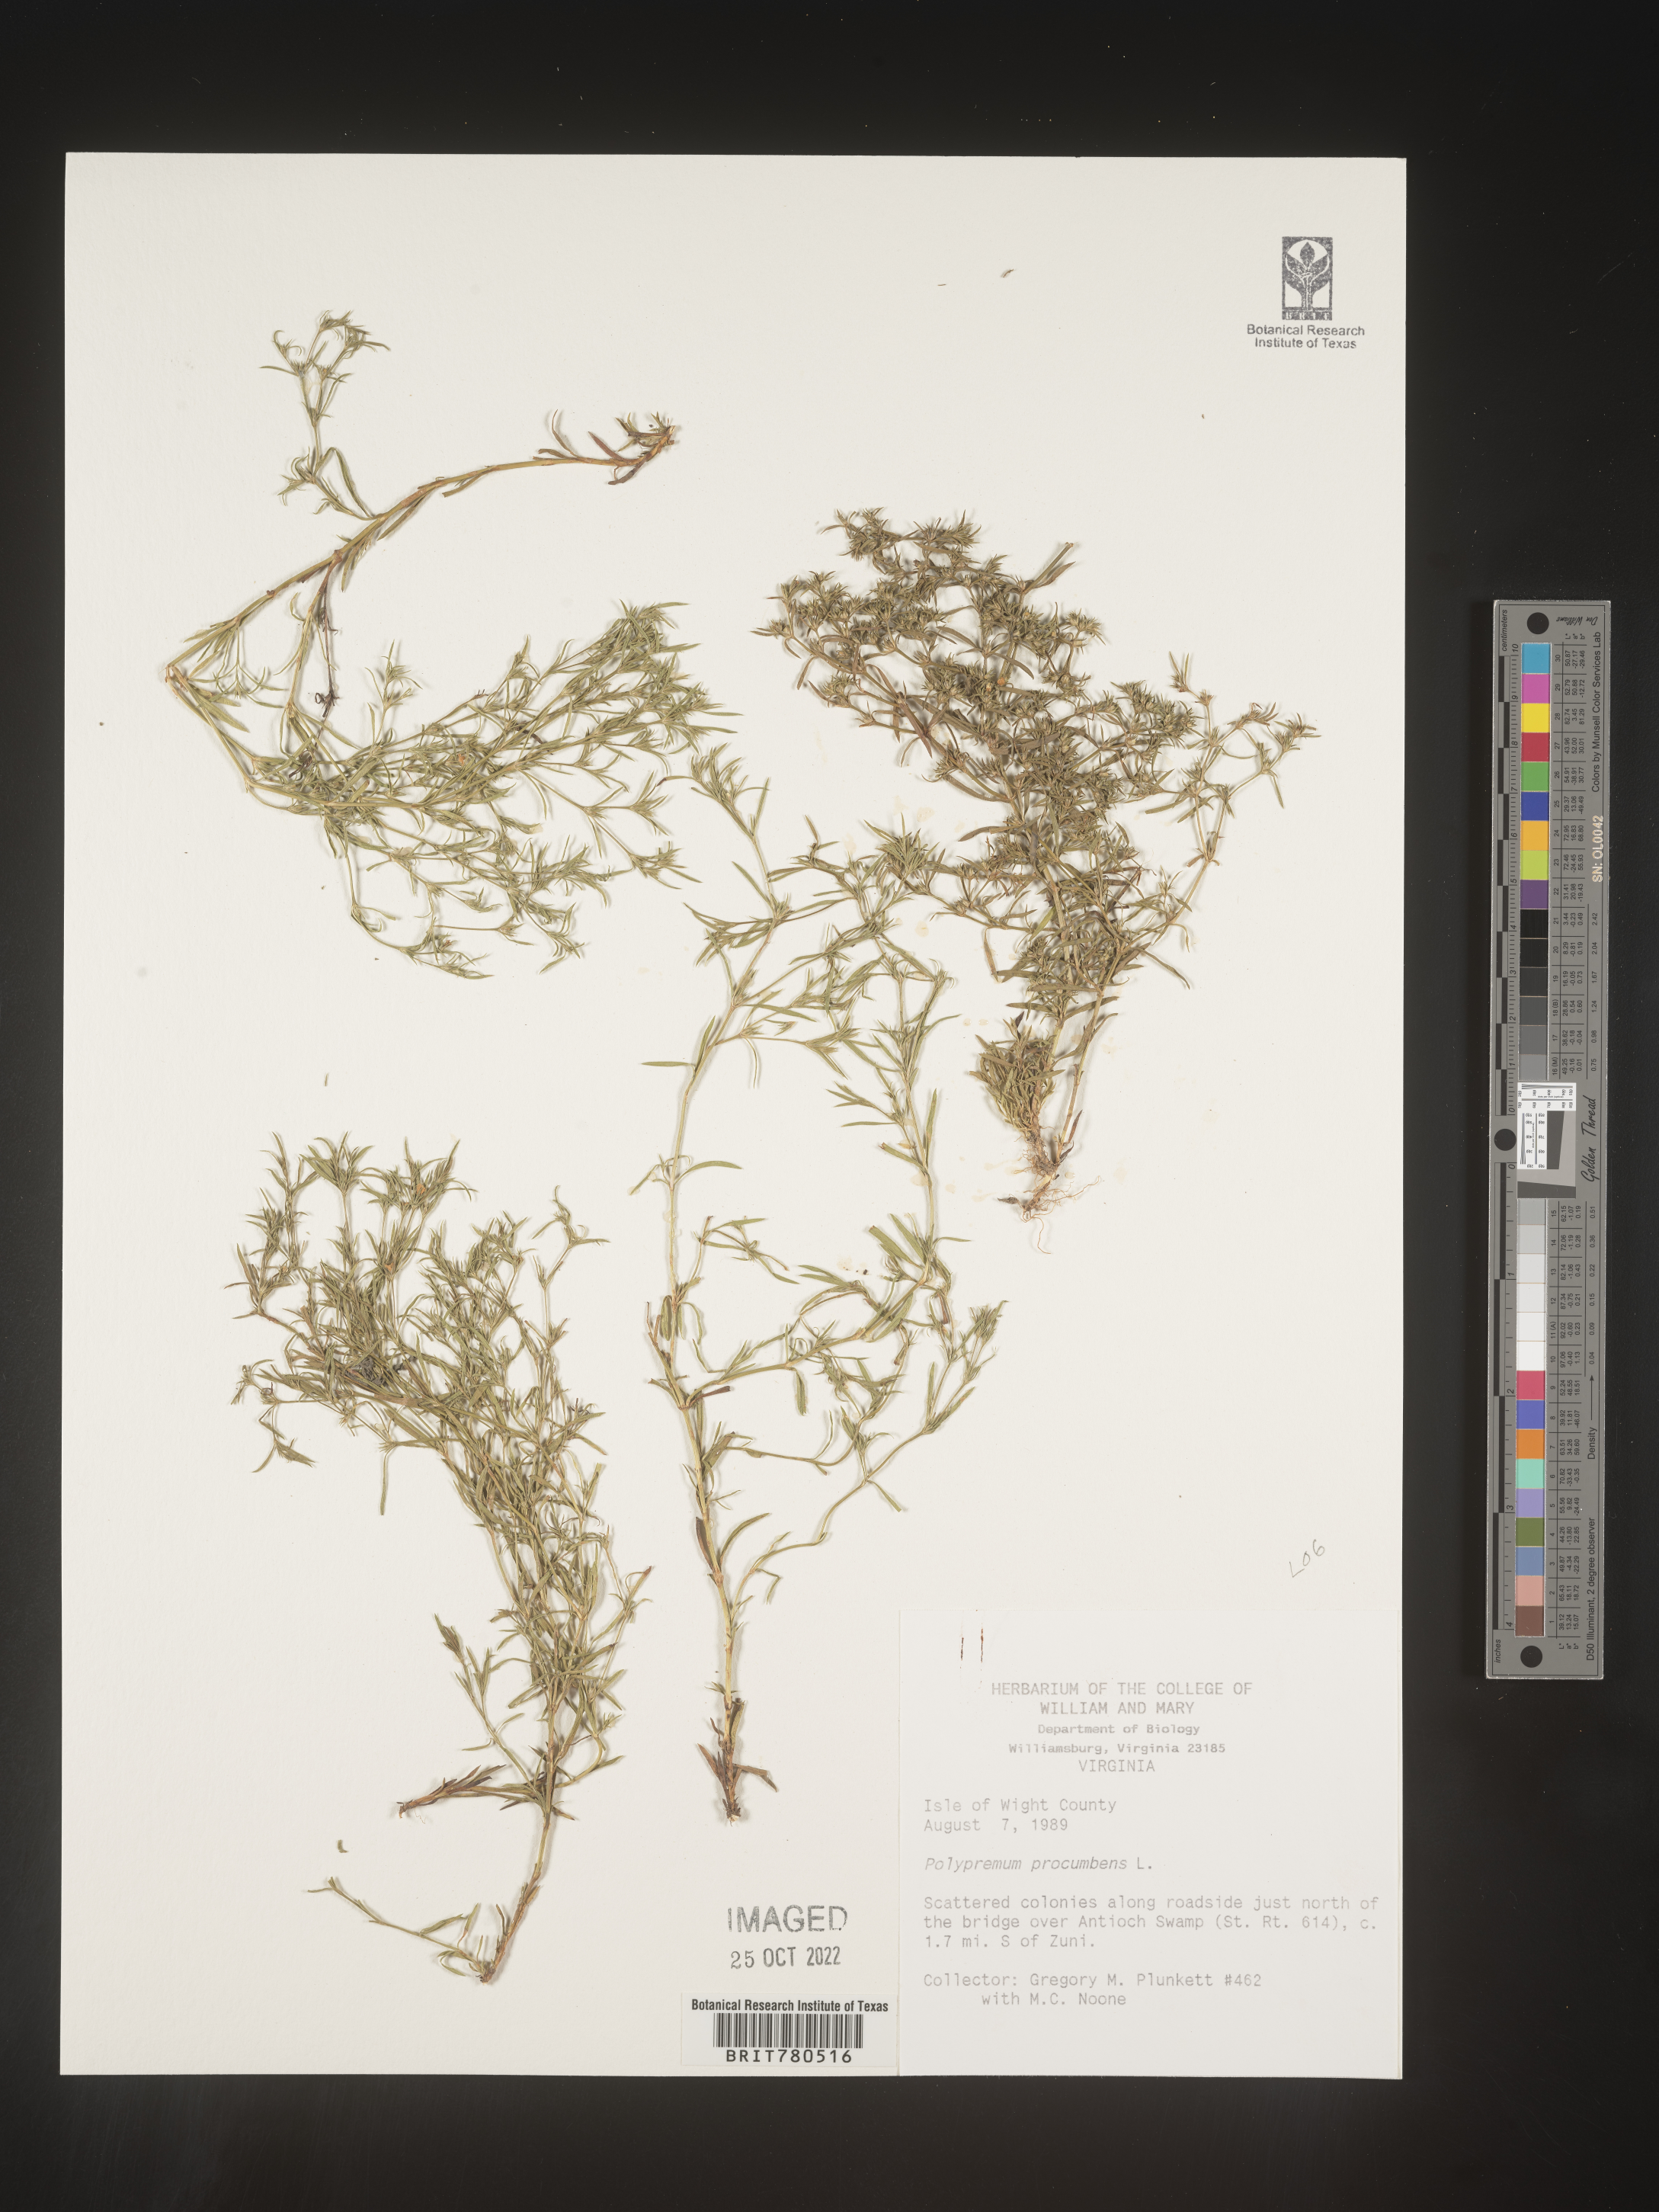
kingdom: Plantae
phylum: Tracheophyta
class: Magnoliopsida
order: Lamiales
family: Tetrachondraceae
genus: Polypremum
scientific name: Polypremum procumbens
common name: Juniper-leaf
